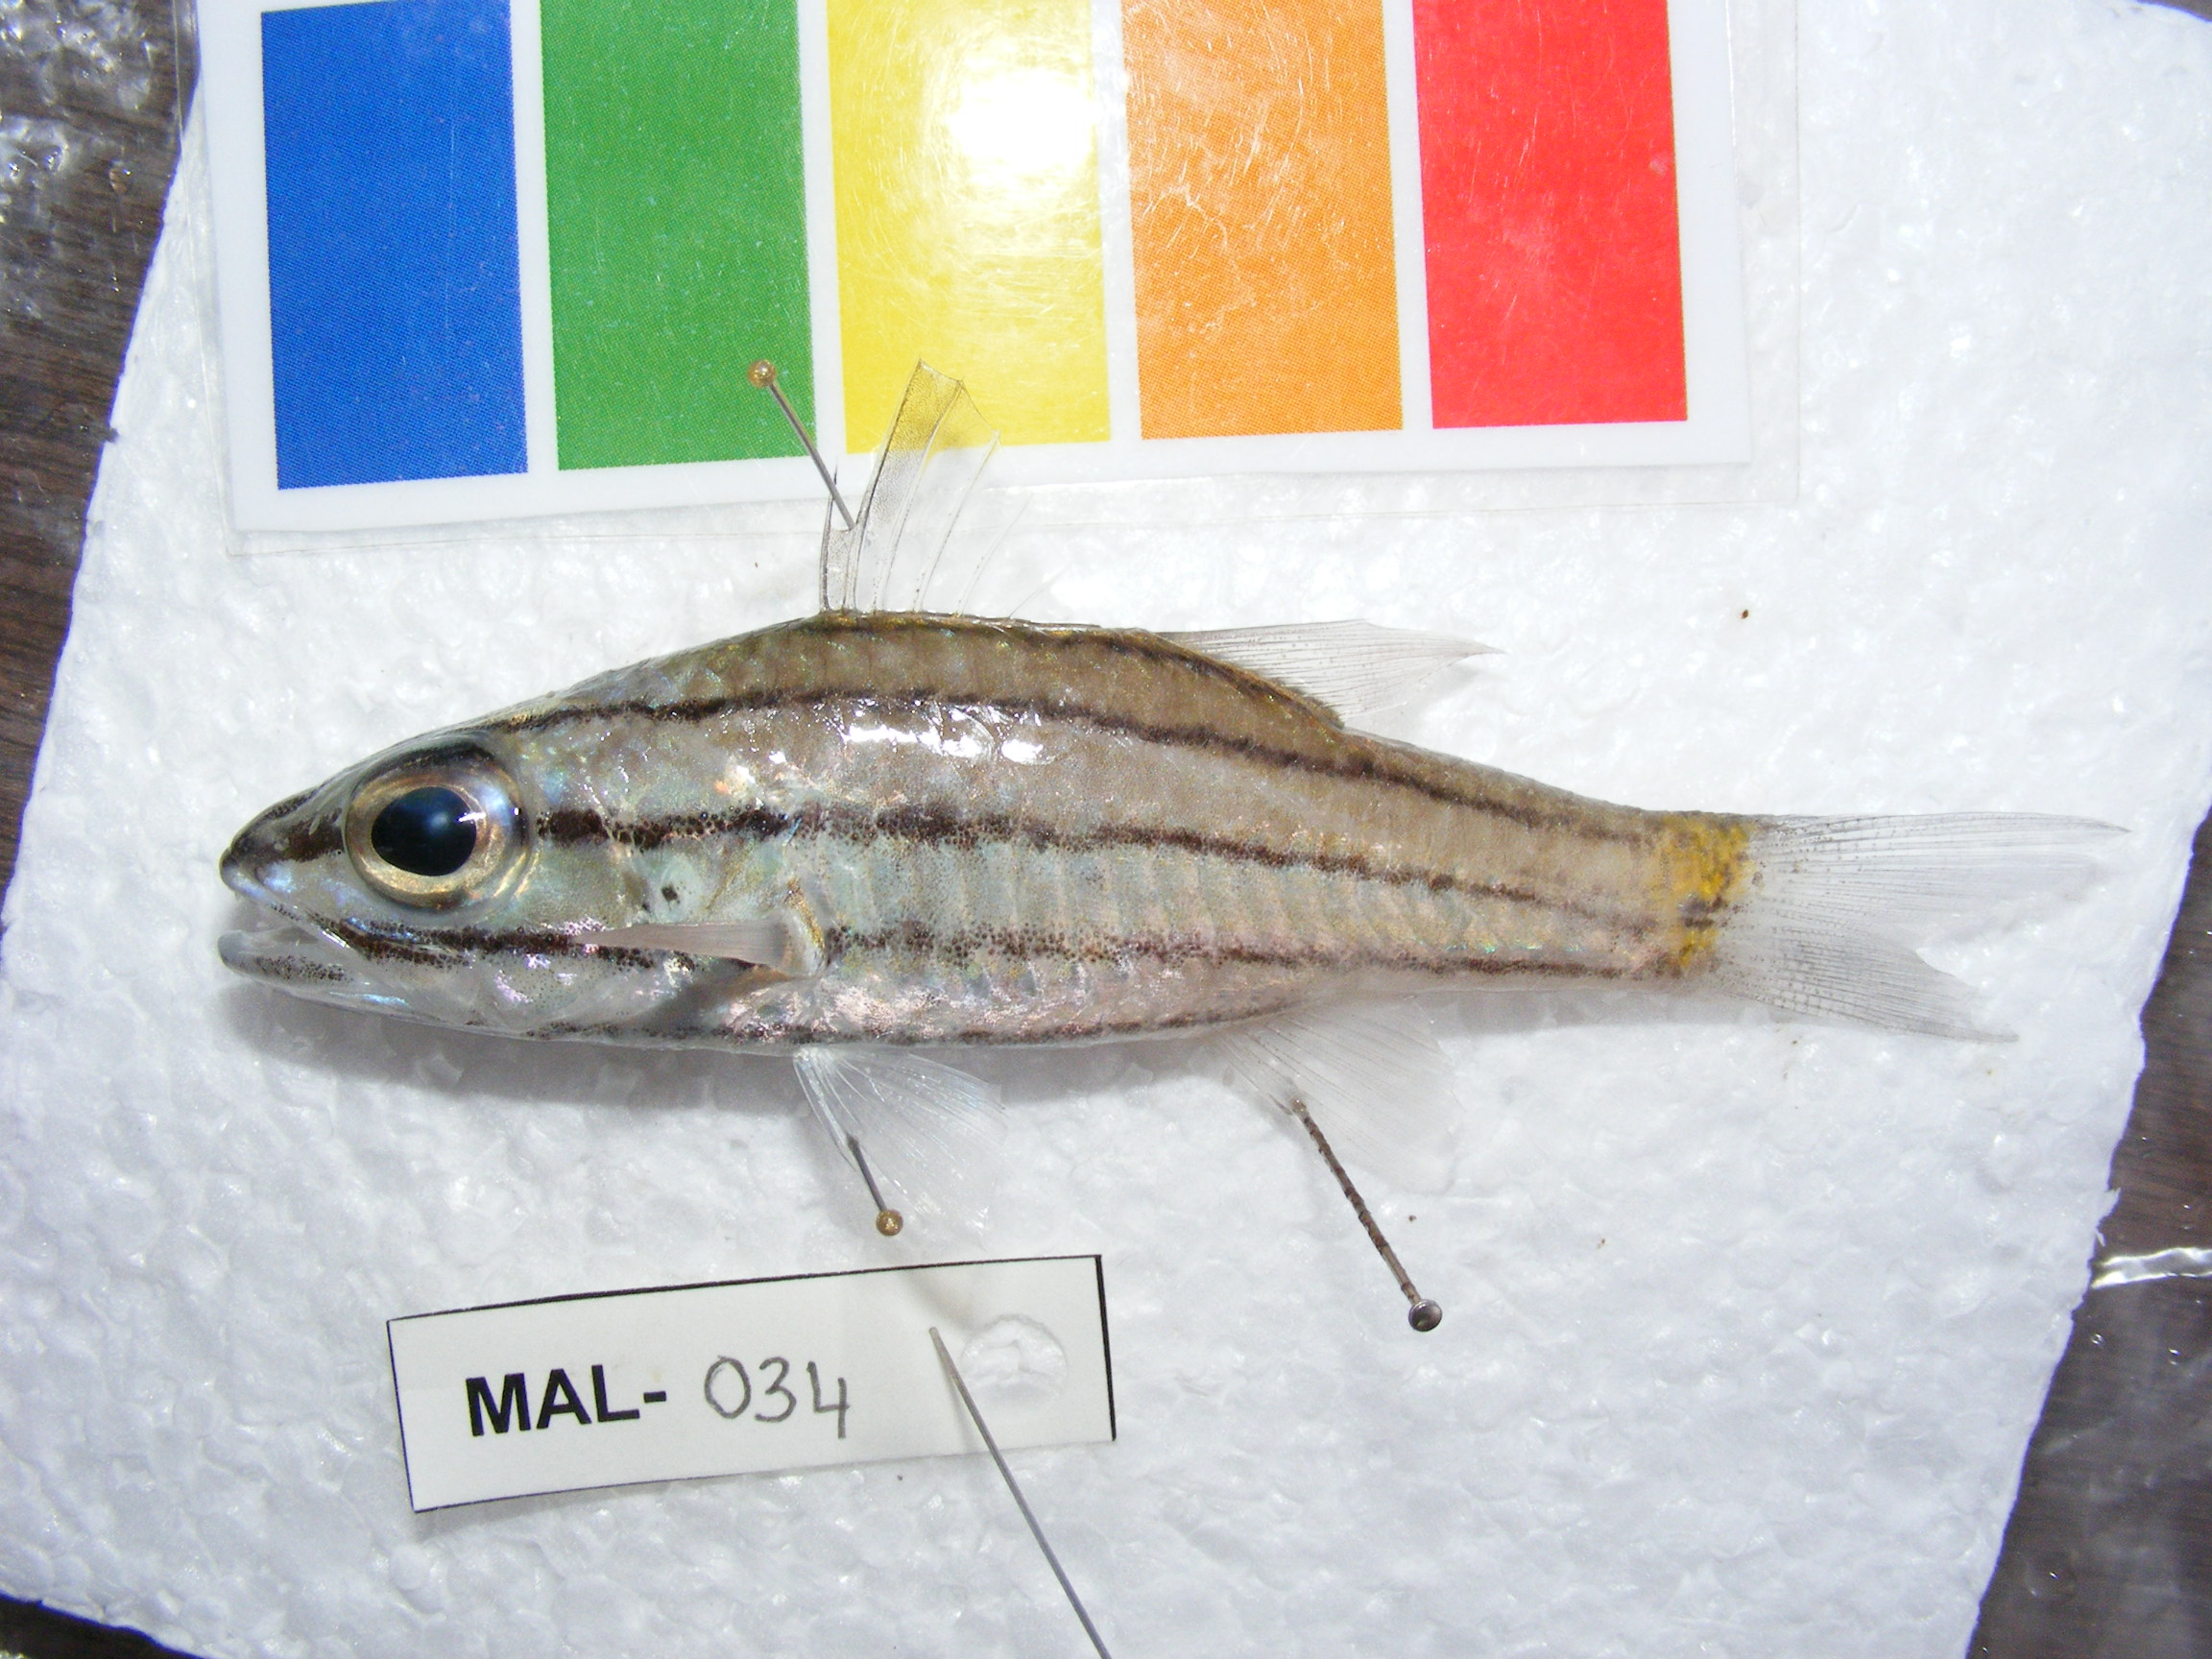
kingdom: Animalia
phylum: Chordata
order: Perciformes
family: Apogonidae
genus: Cheilodipterus
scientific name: Cheilodipterus quinquelineatus
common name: Five-lined cardinalfish
